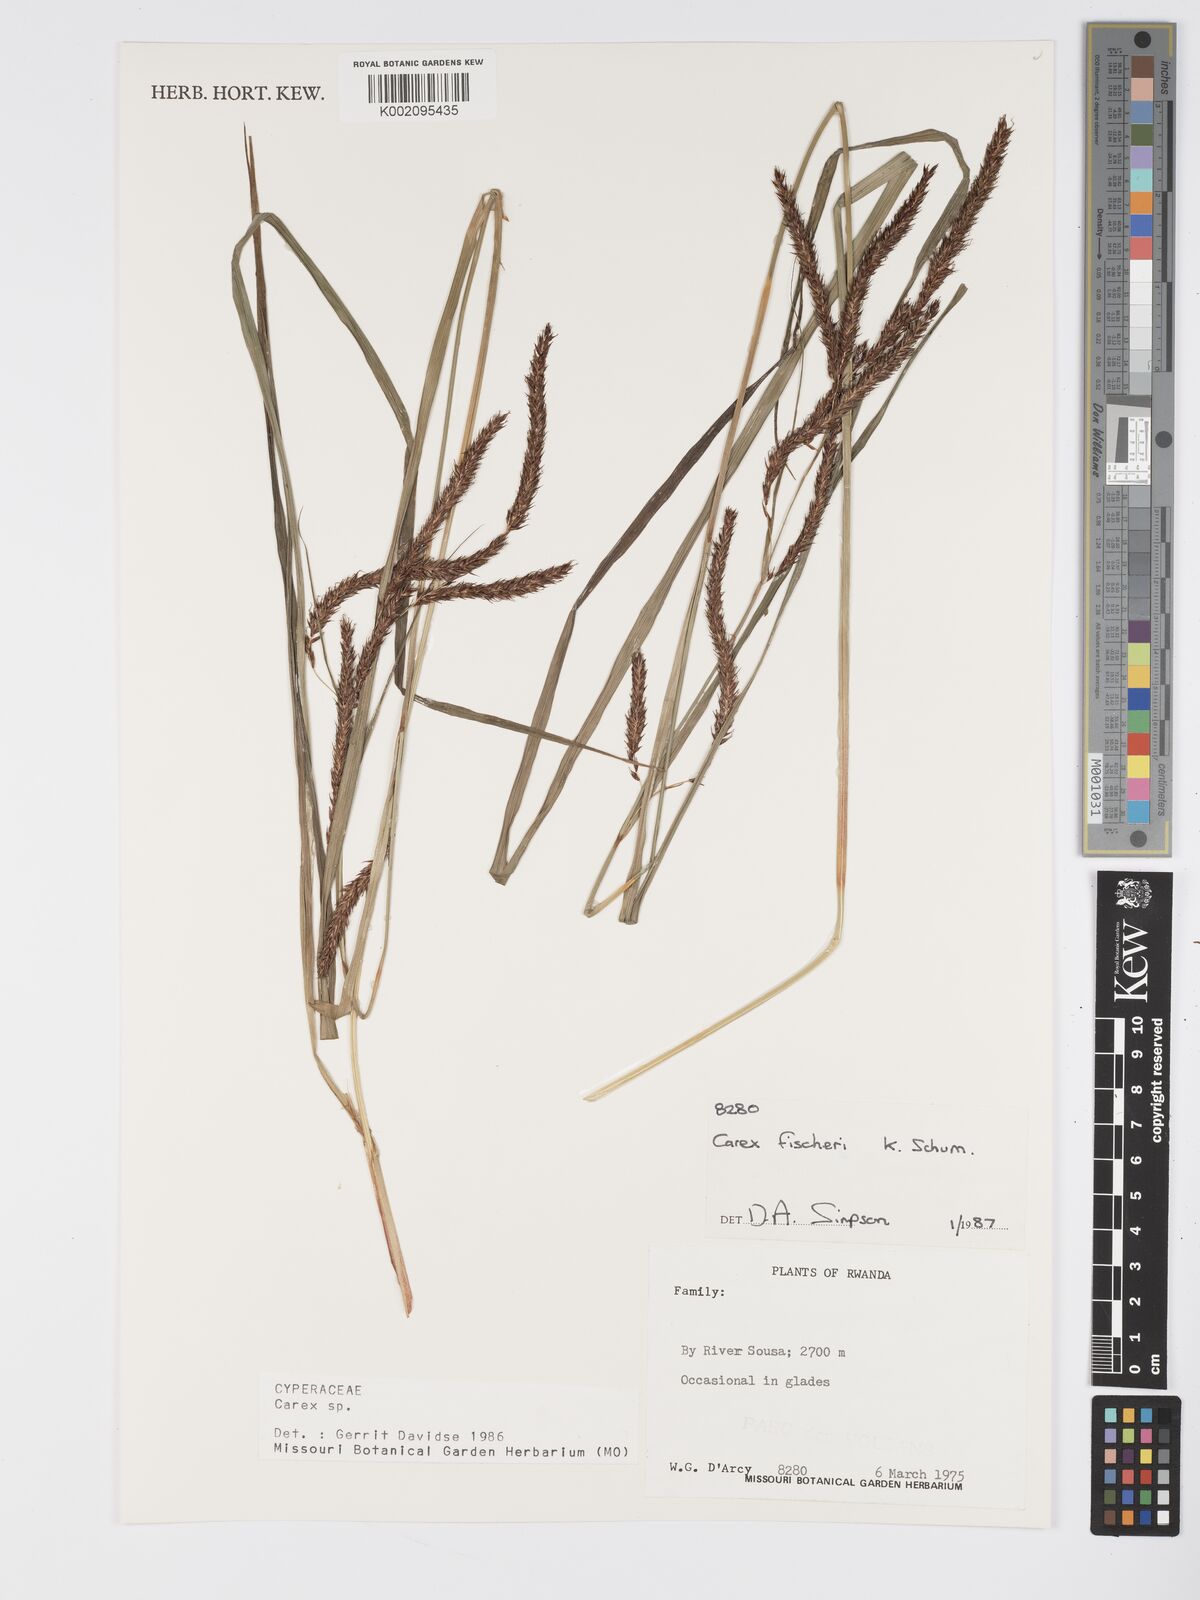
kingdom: Plantae
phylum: Tracheophyta
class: Liliopsida
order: Poales
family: Cyperaceae
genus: Carex
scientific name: Carex fischeri
